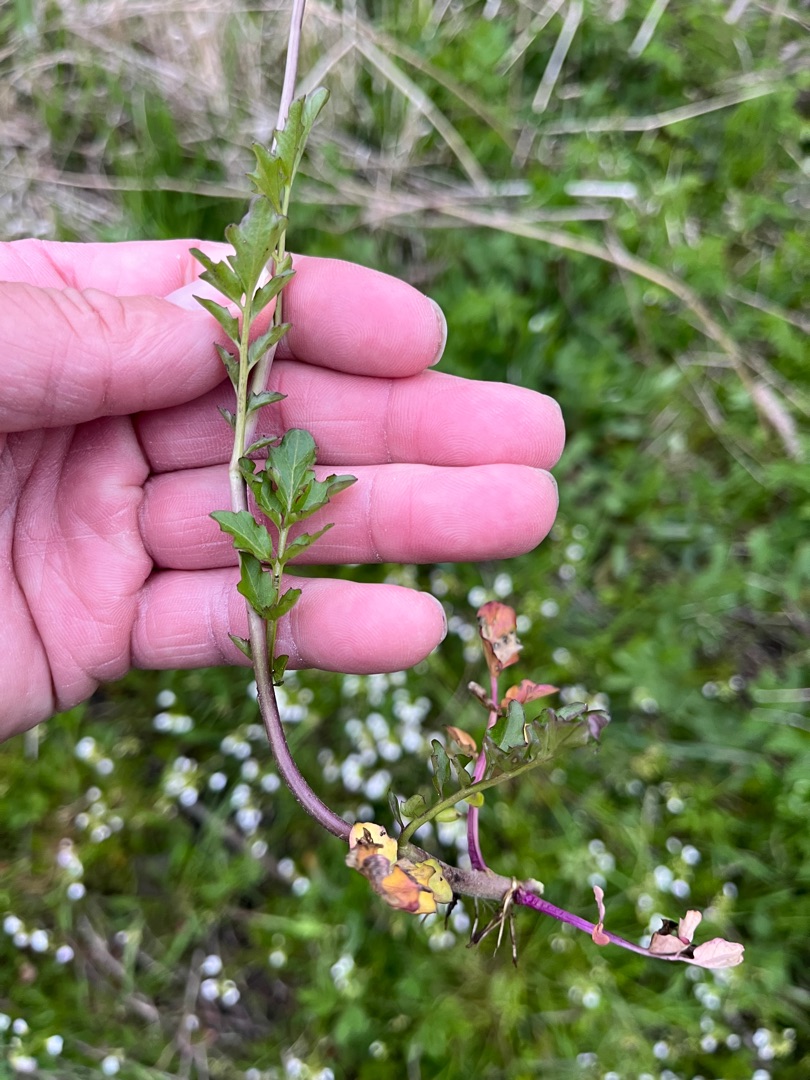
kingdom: Plantae
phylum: Tracheophyta
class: Magnoliopsida
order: Brassicales
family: Brassicaceae
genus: Cardamine
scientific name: Cardamine amara
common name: Vandkarse
